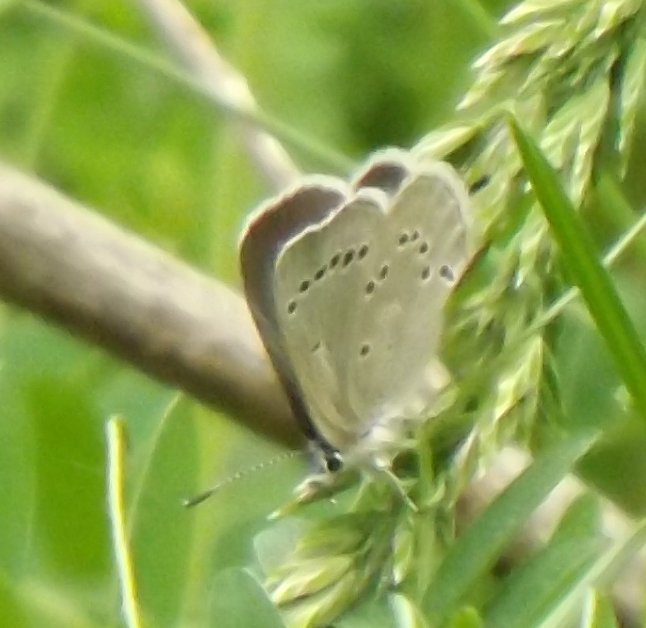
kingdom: Animalia
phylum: Arthropoda
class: Insecta
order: Lepidoptera
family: Lycaenidae
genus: Glaucopsyche
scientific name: Glaucopsyche lygdamus
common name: Silvery Blue
